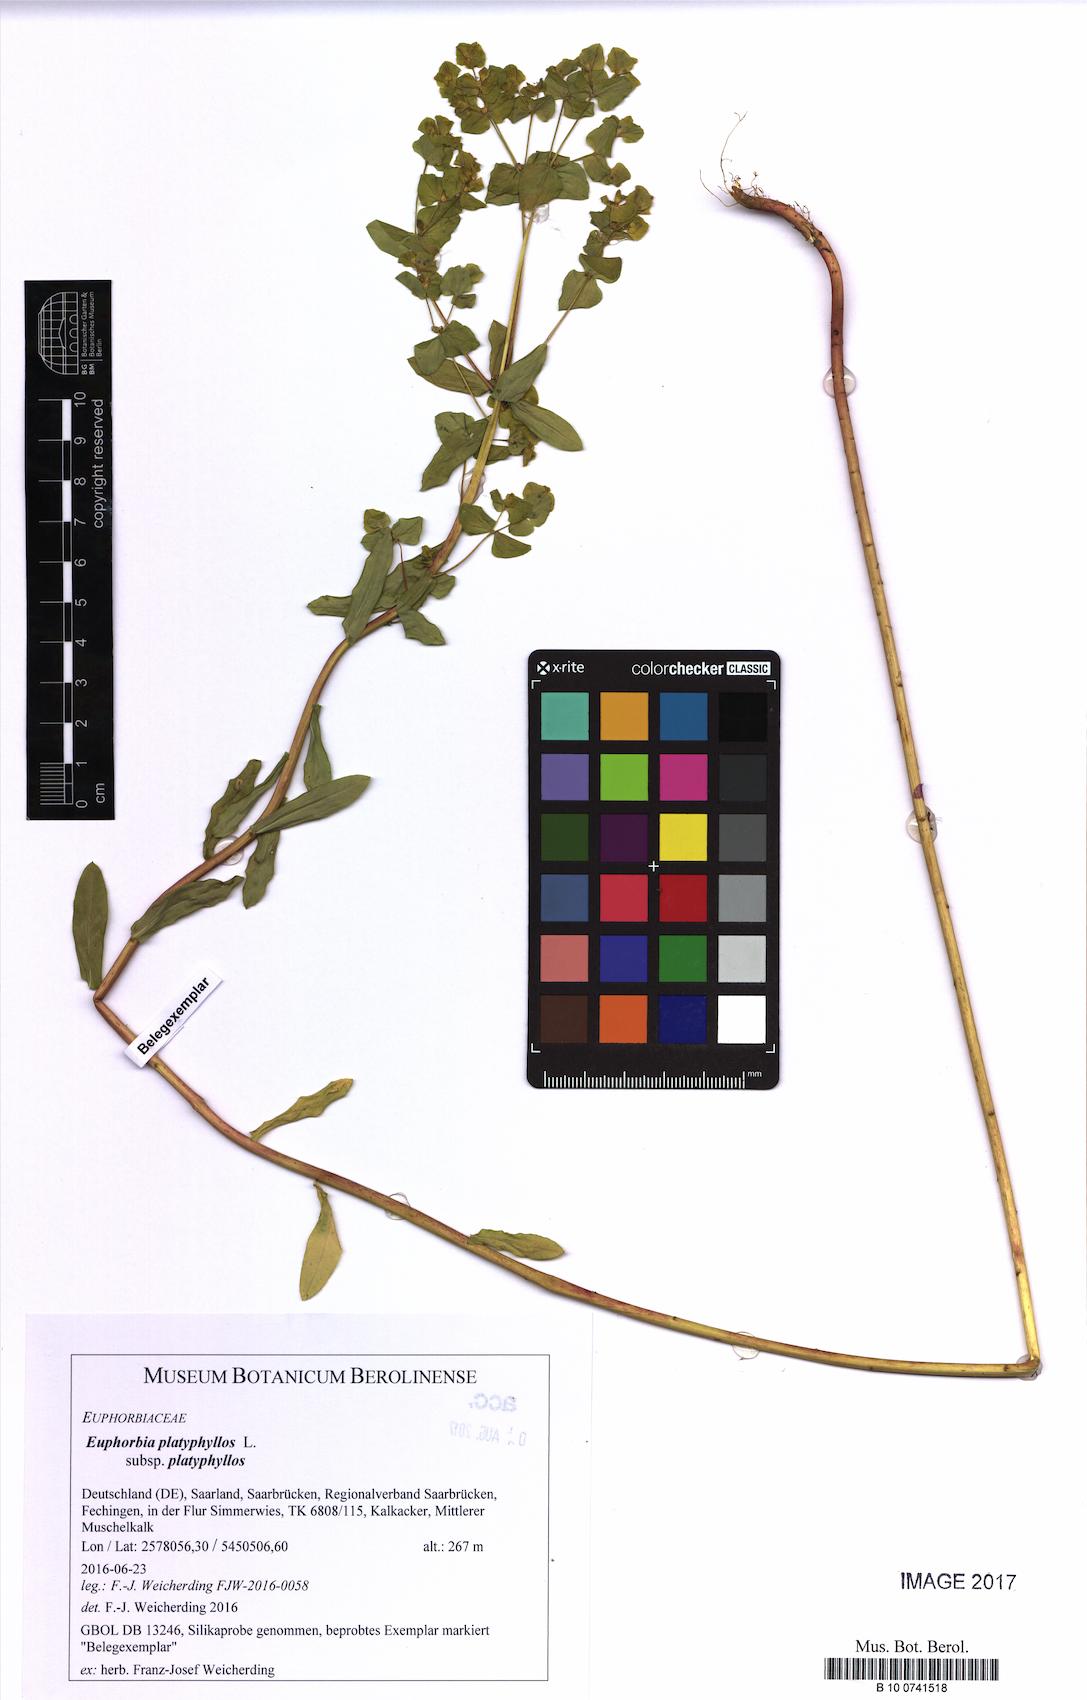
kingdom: Plantae
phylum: Tracheophyta
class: Magnoliopsida
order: Malpighiales
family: Euphorbiaceae
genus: Euphorbia
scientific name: Euphorbia platyphyllos
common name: Broad-leaved spurge
